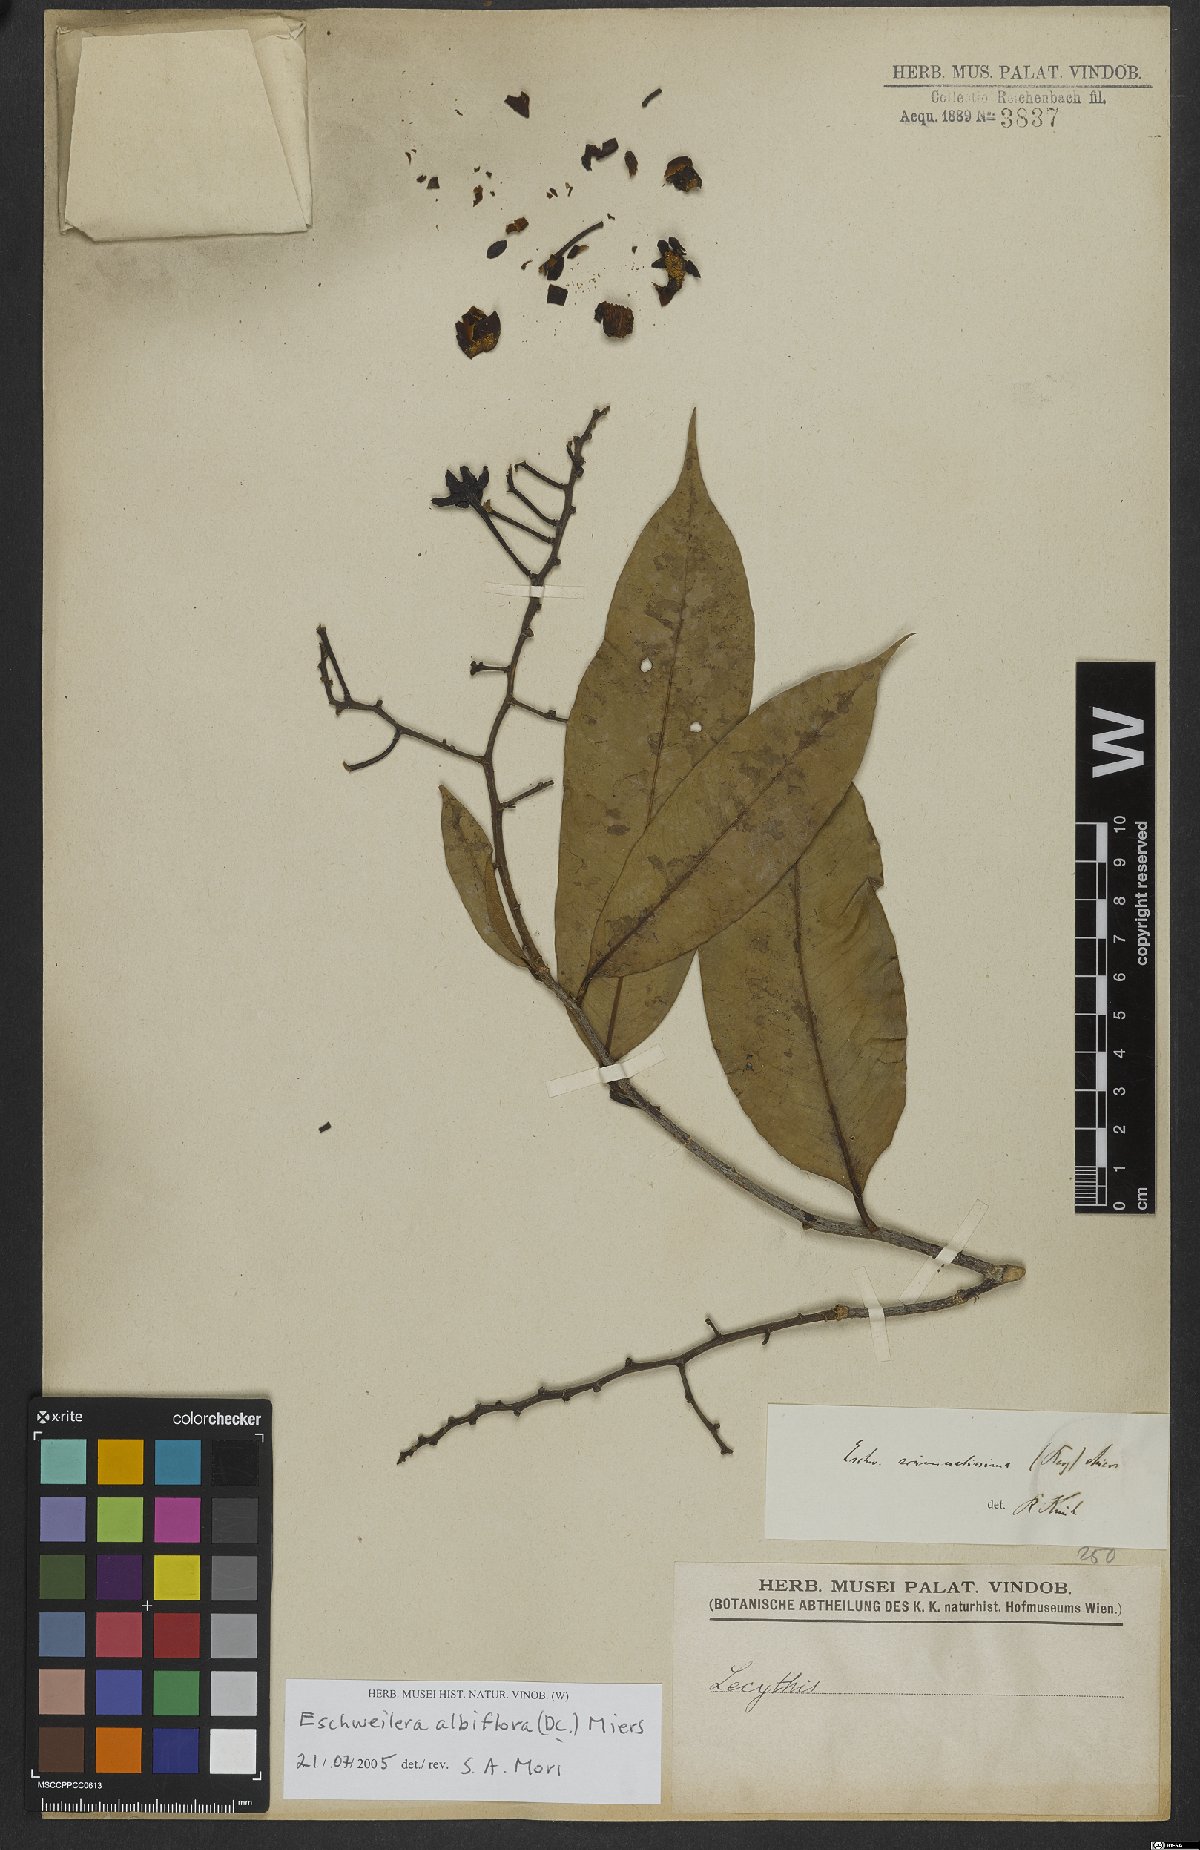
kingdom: Plantae
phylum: Tracheophyta
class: Magnoliopsida
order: Ericales
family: Lecythidaceae
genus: Eschweilera
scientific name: Eschweilera albiflora
